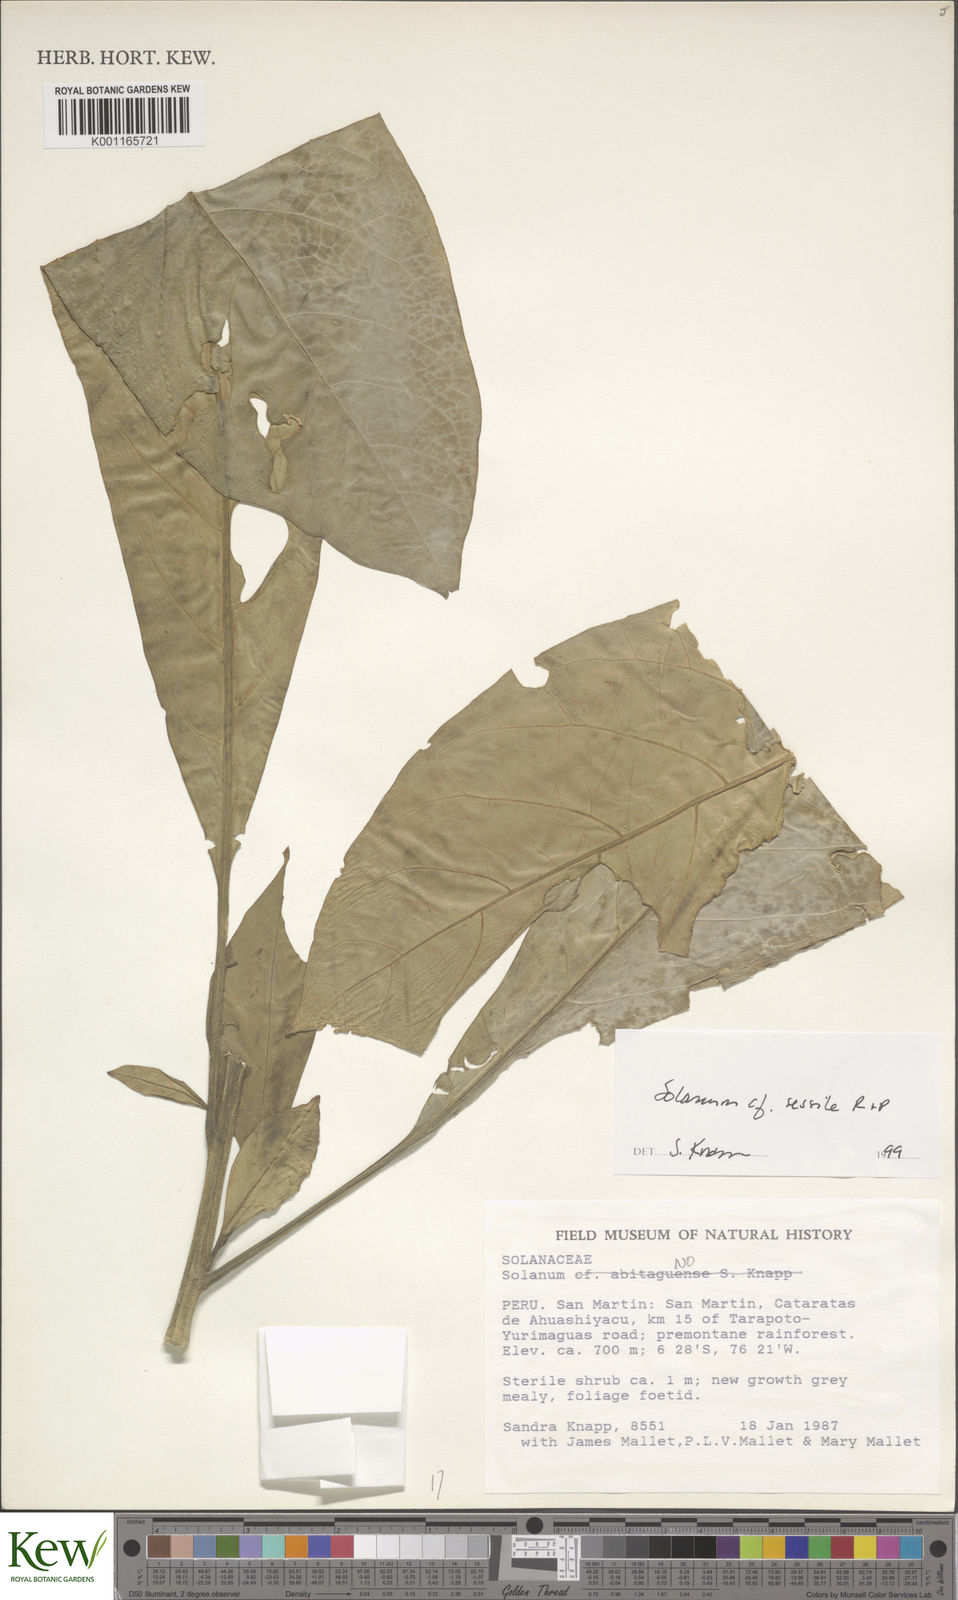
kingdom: Plantae
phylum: Tracheophyta
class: Magnoliopsida
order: Solanales
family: Solanaceae
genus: Solanum
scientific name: Solanum sessile
